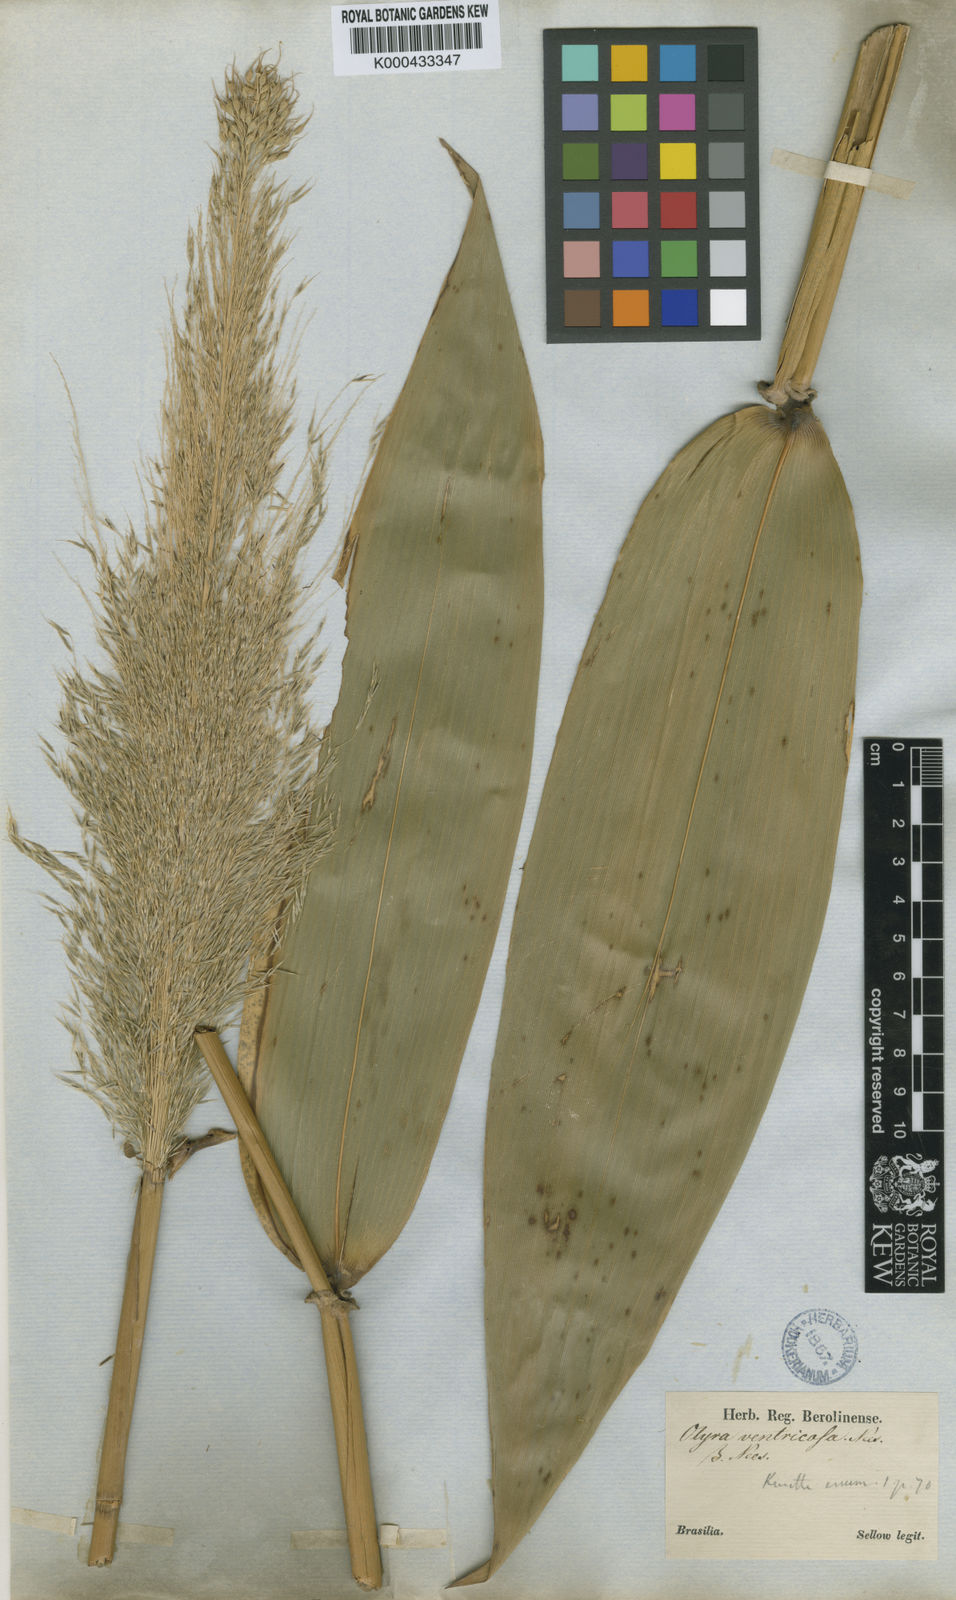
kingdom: Plantae
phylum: Tracheophyta
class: Liliopsida
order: Poales
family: Poaceae
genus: Olyra
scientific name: Olyra
